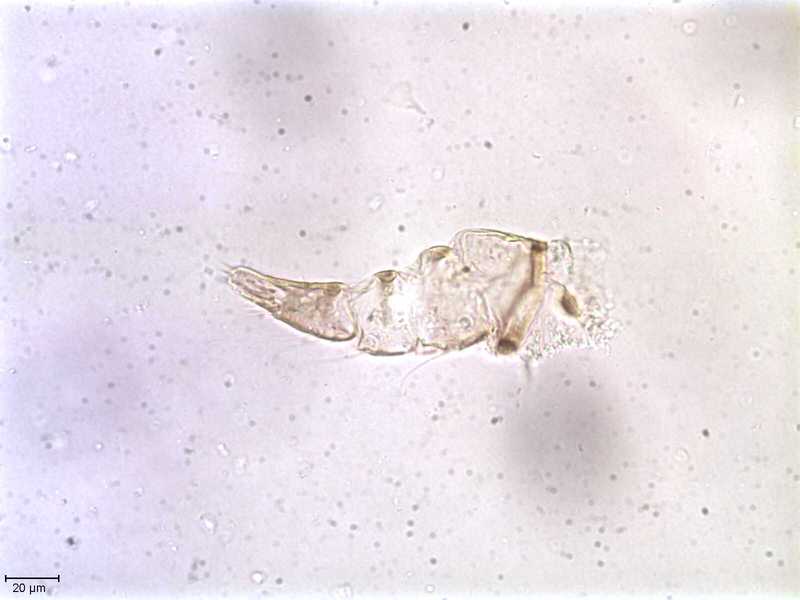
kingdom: Animalia
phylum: Arthropoda
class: Arachnida
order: Mesostigmata
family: Halarachnidae
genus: Orthohalarachne
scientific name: Orthohalarachne letalis
